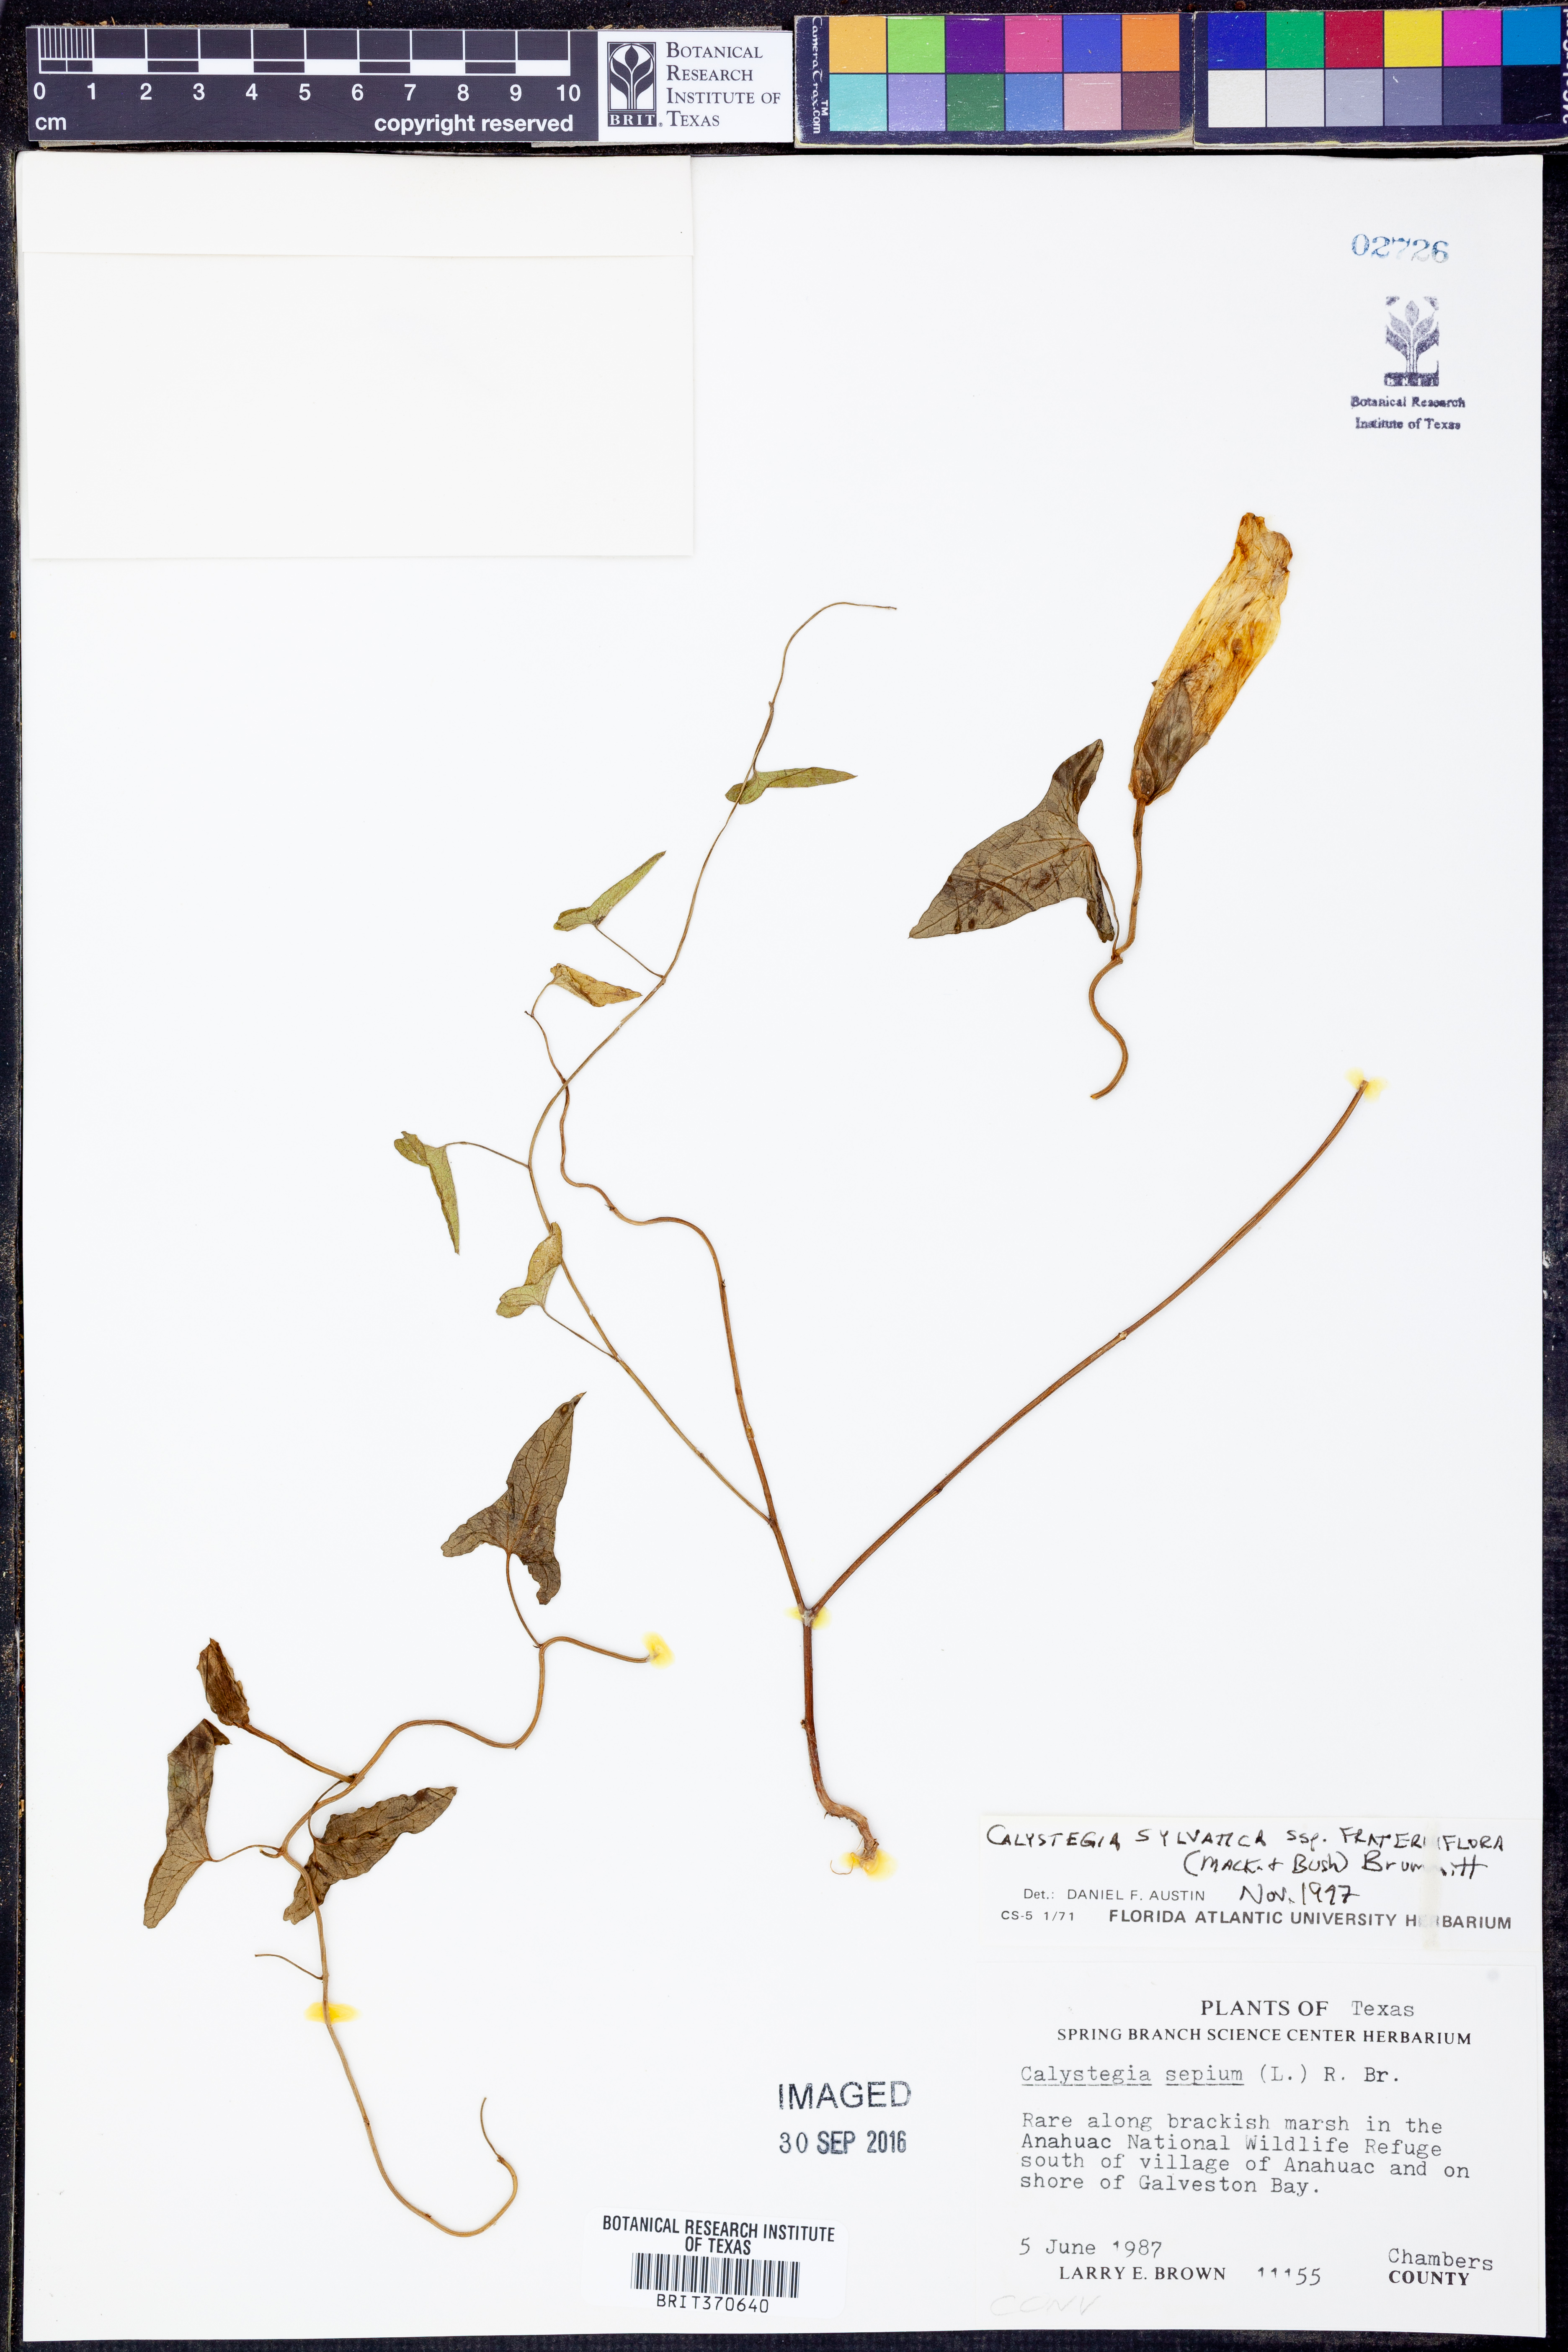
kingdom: Plantae
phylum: Tracheophyta
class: Magnoliopsida
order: Solanales
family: Convolvulaceae
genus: Calystegia
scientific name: Calystegia silvatica
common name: Large bindweed
